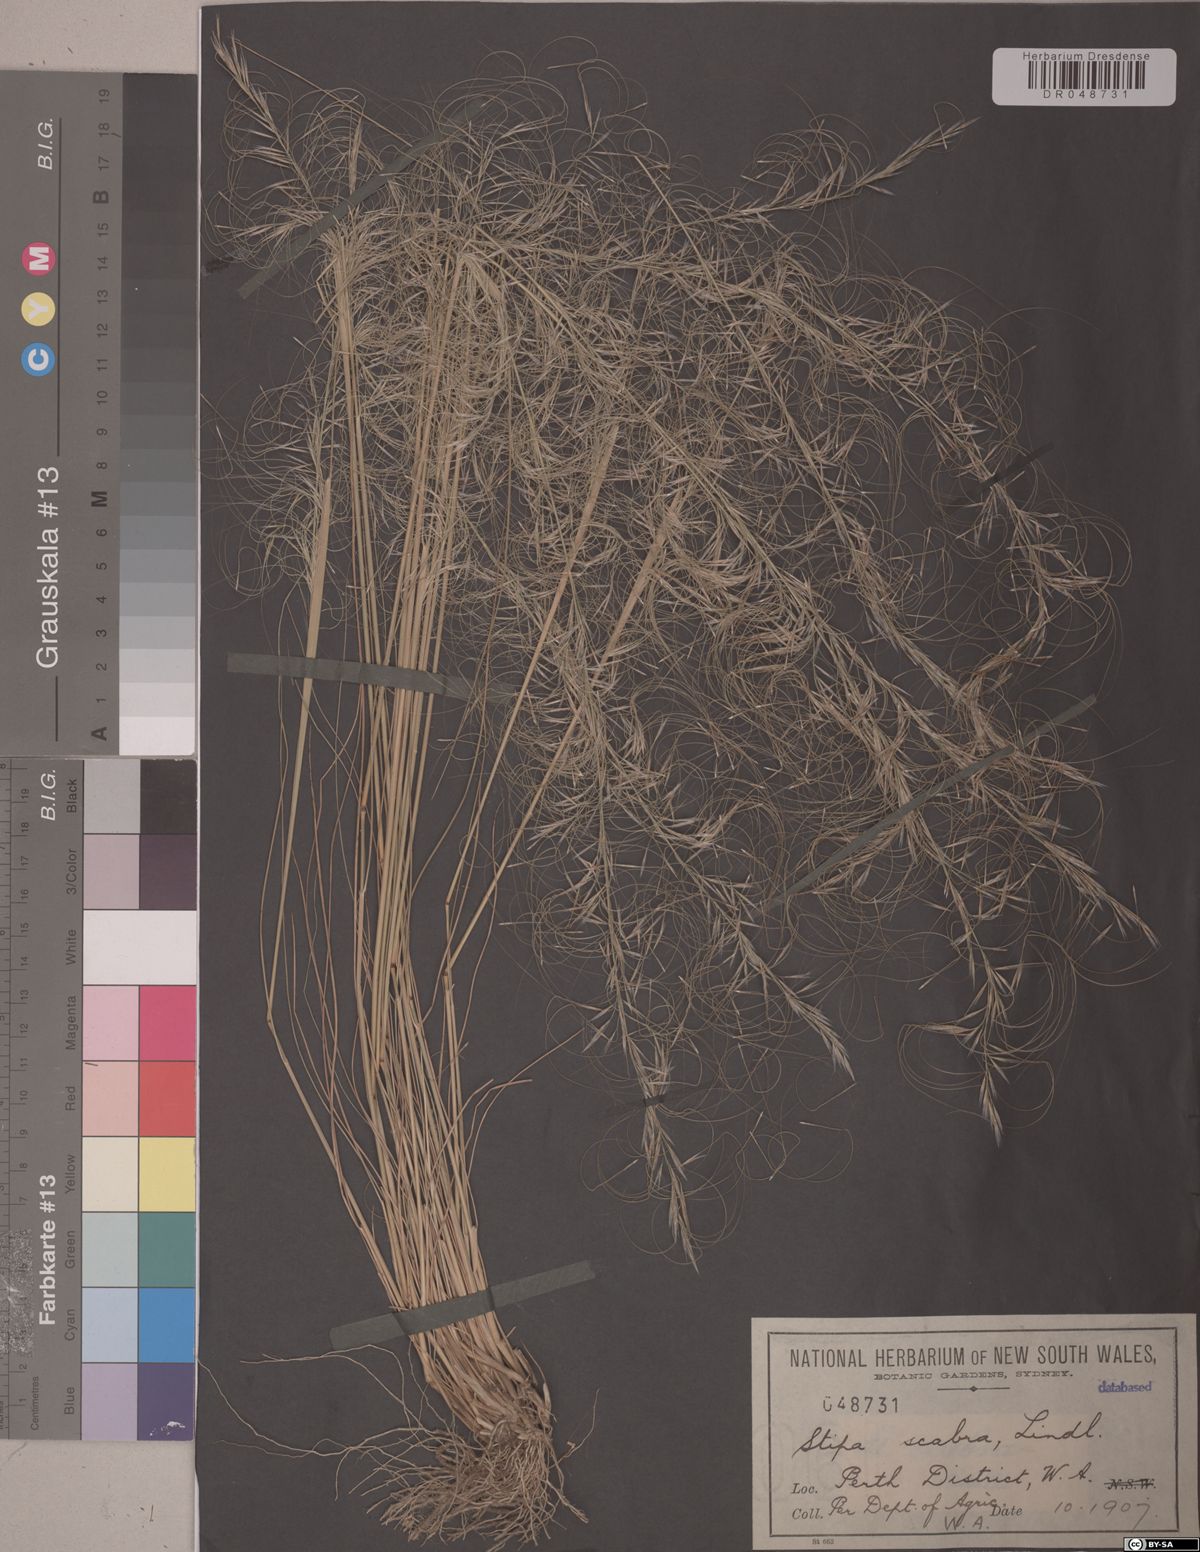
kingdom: Plantae
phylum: Tracheophyta
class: Liliopsida
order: Poales
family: Poaceae
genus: Austrostipa
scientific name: Austrostipa scabra
